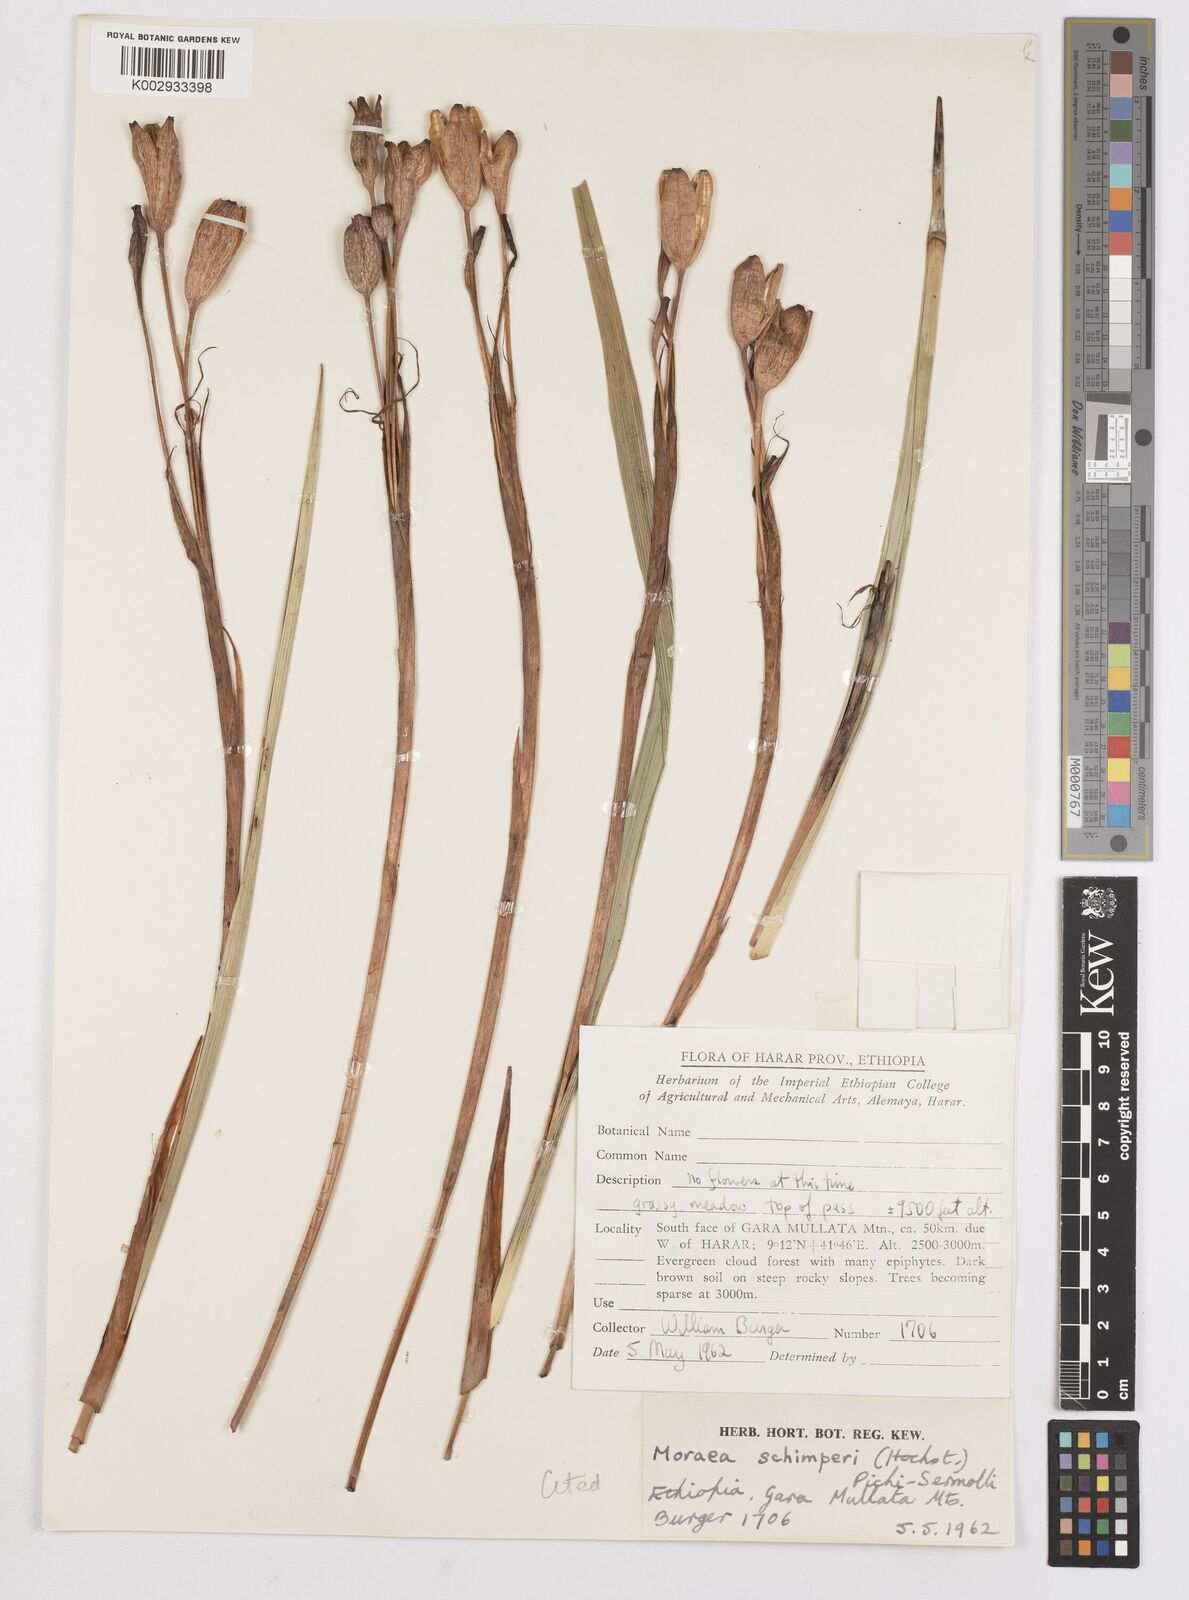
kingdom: Plantae
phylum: Tracheophyta
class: Liliopsida
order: Asparagales
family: Iridaceae
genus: Moraea
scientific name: Moraea schimperi
